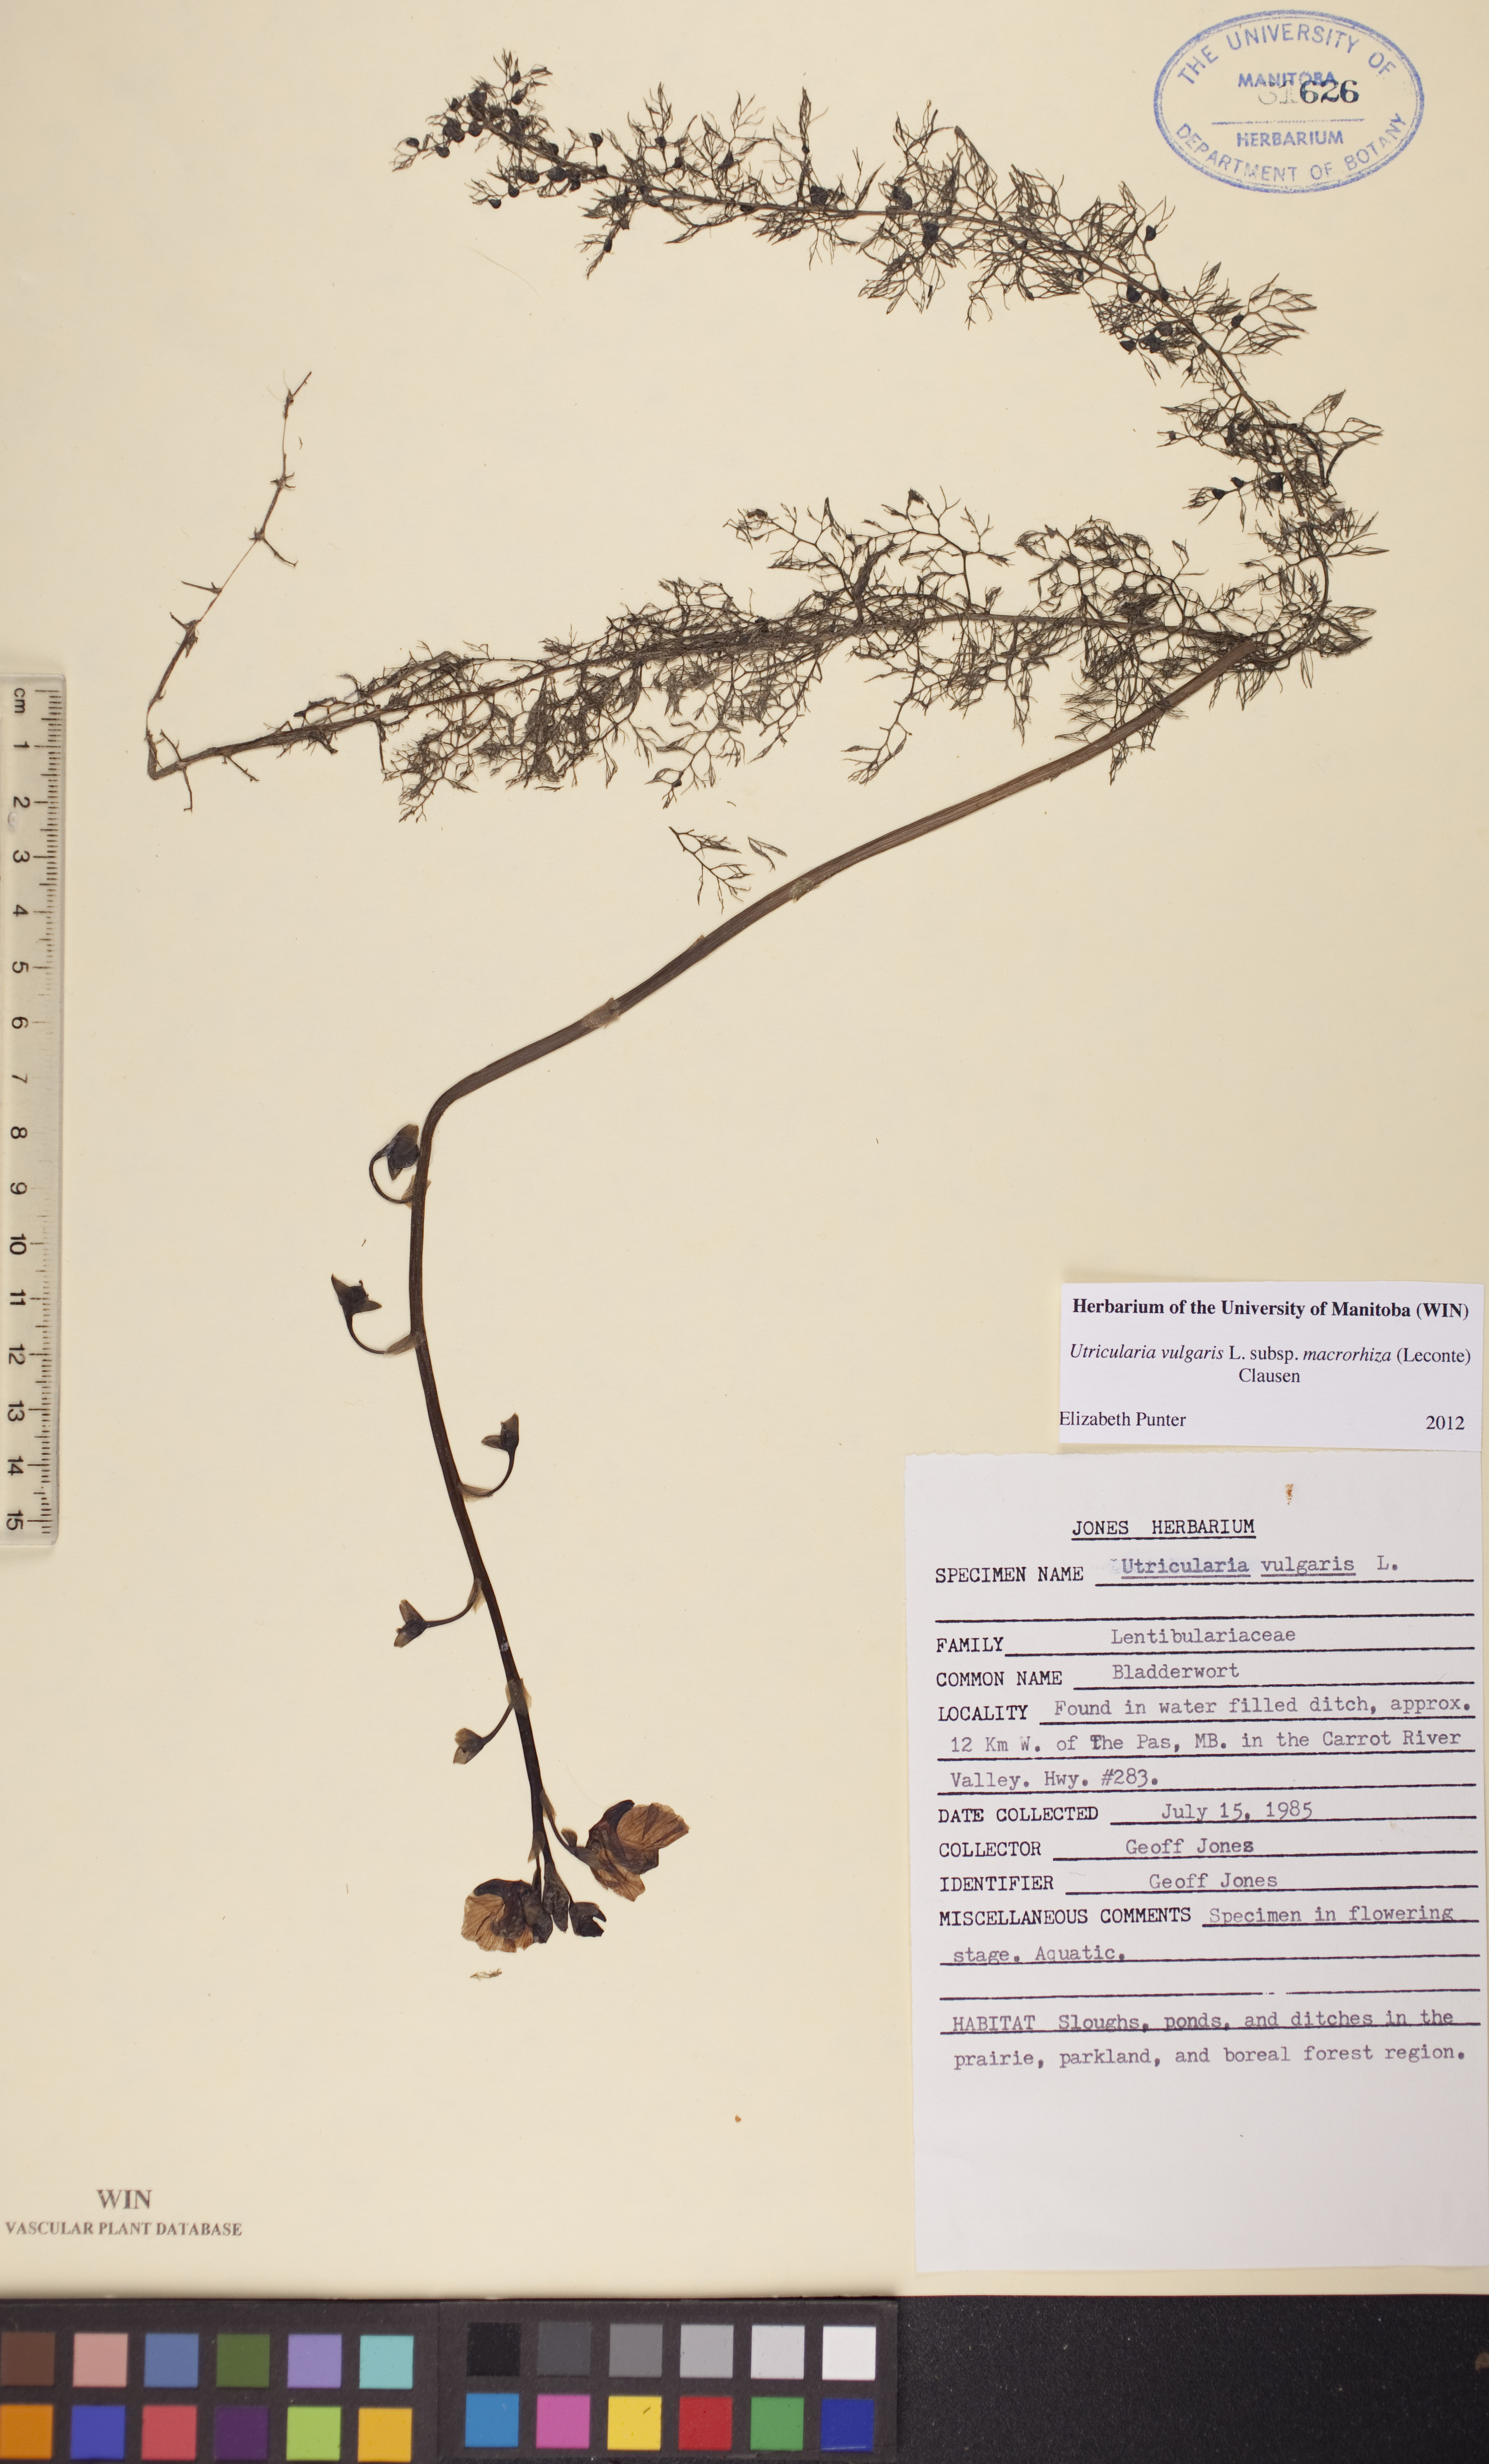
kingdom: Plantae
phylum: Tracheophyta
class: Magnoliopsida
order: Lamiales
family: Lentibulariaceae
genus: Utricularia
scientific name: Utricularia macrorhiza
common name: Common bladderwort
